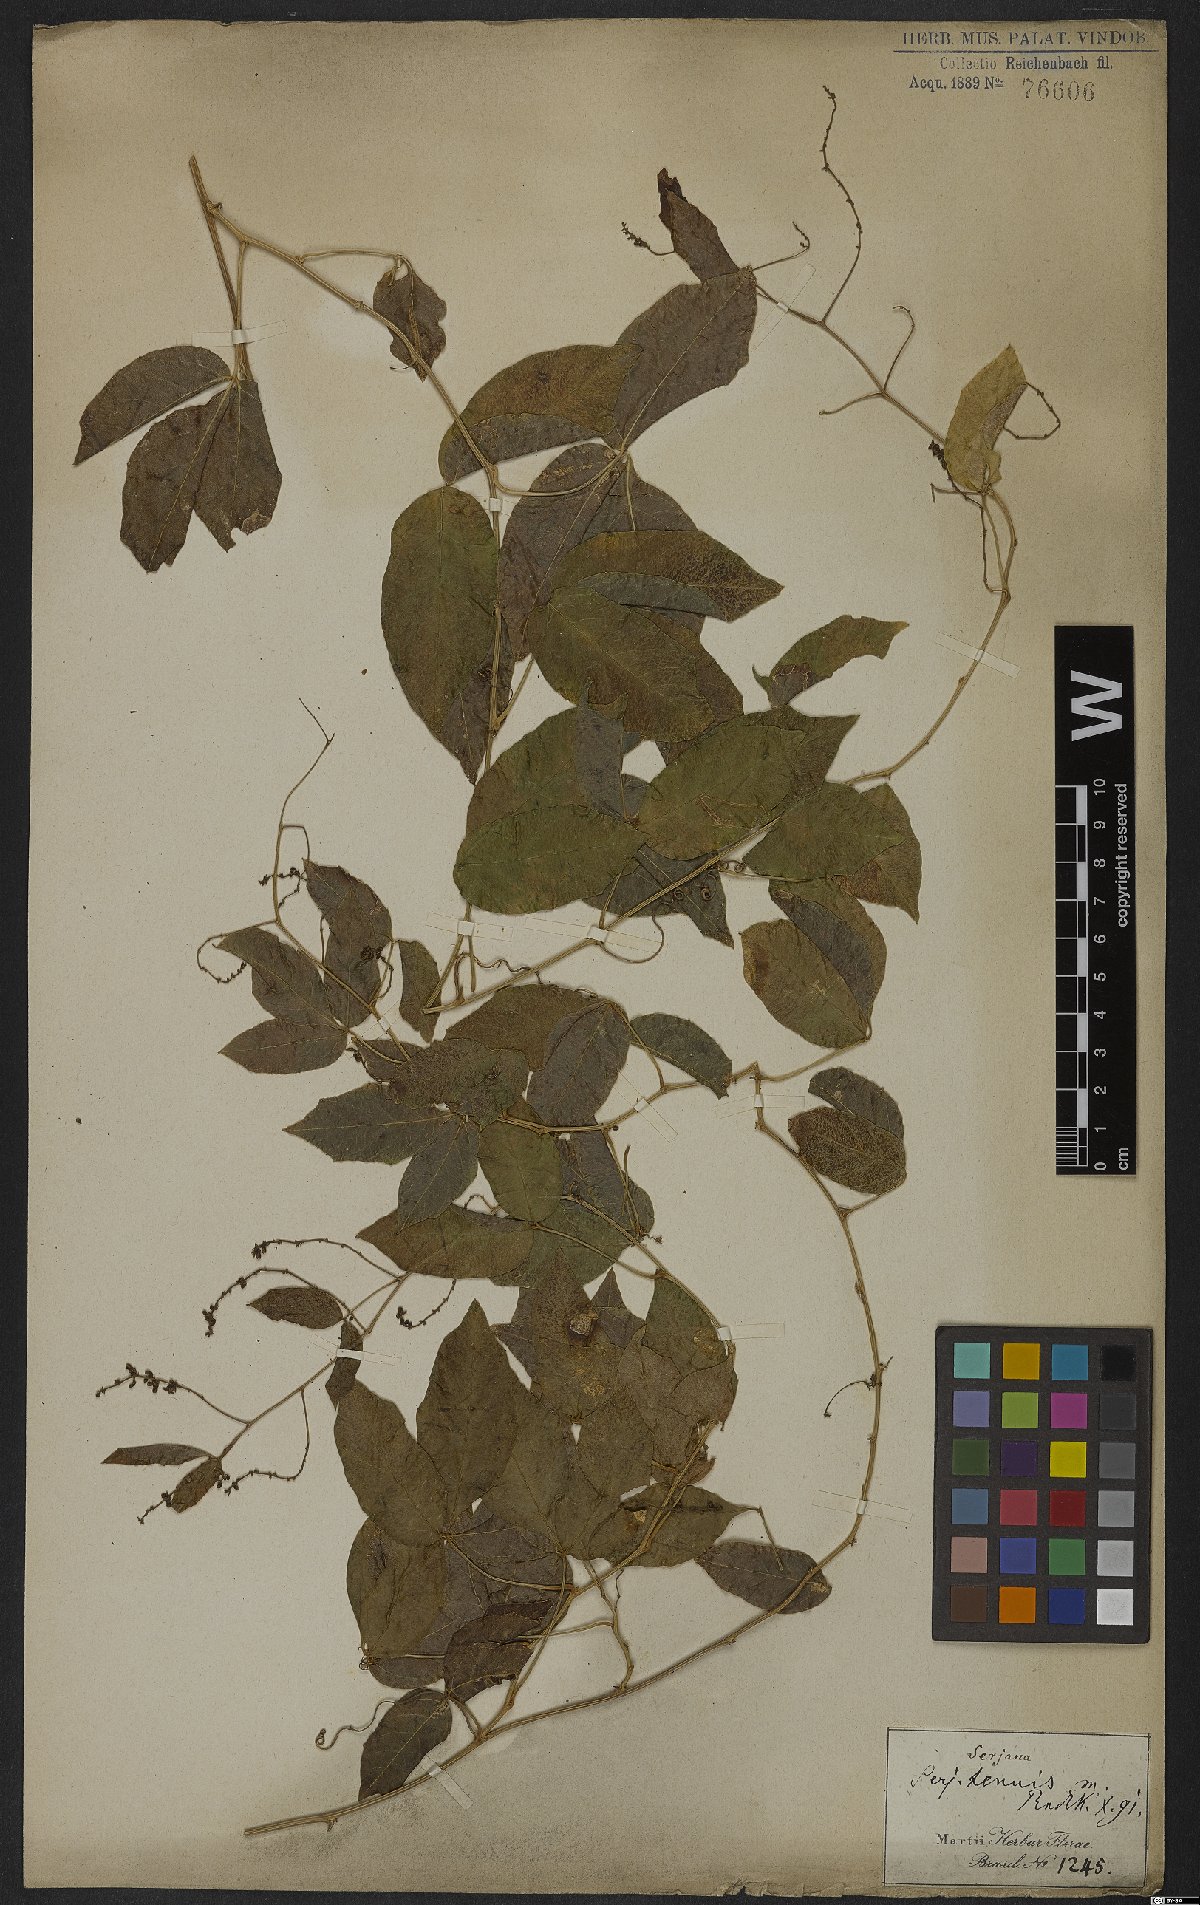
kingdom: Plantae
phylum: Tracheophyta
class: Magnoliopsida
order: Sapindales
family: Sapindaceae
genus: Serjania
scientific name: Serjania tenuis
